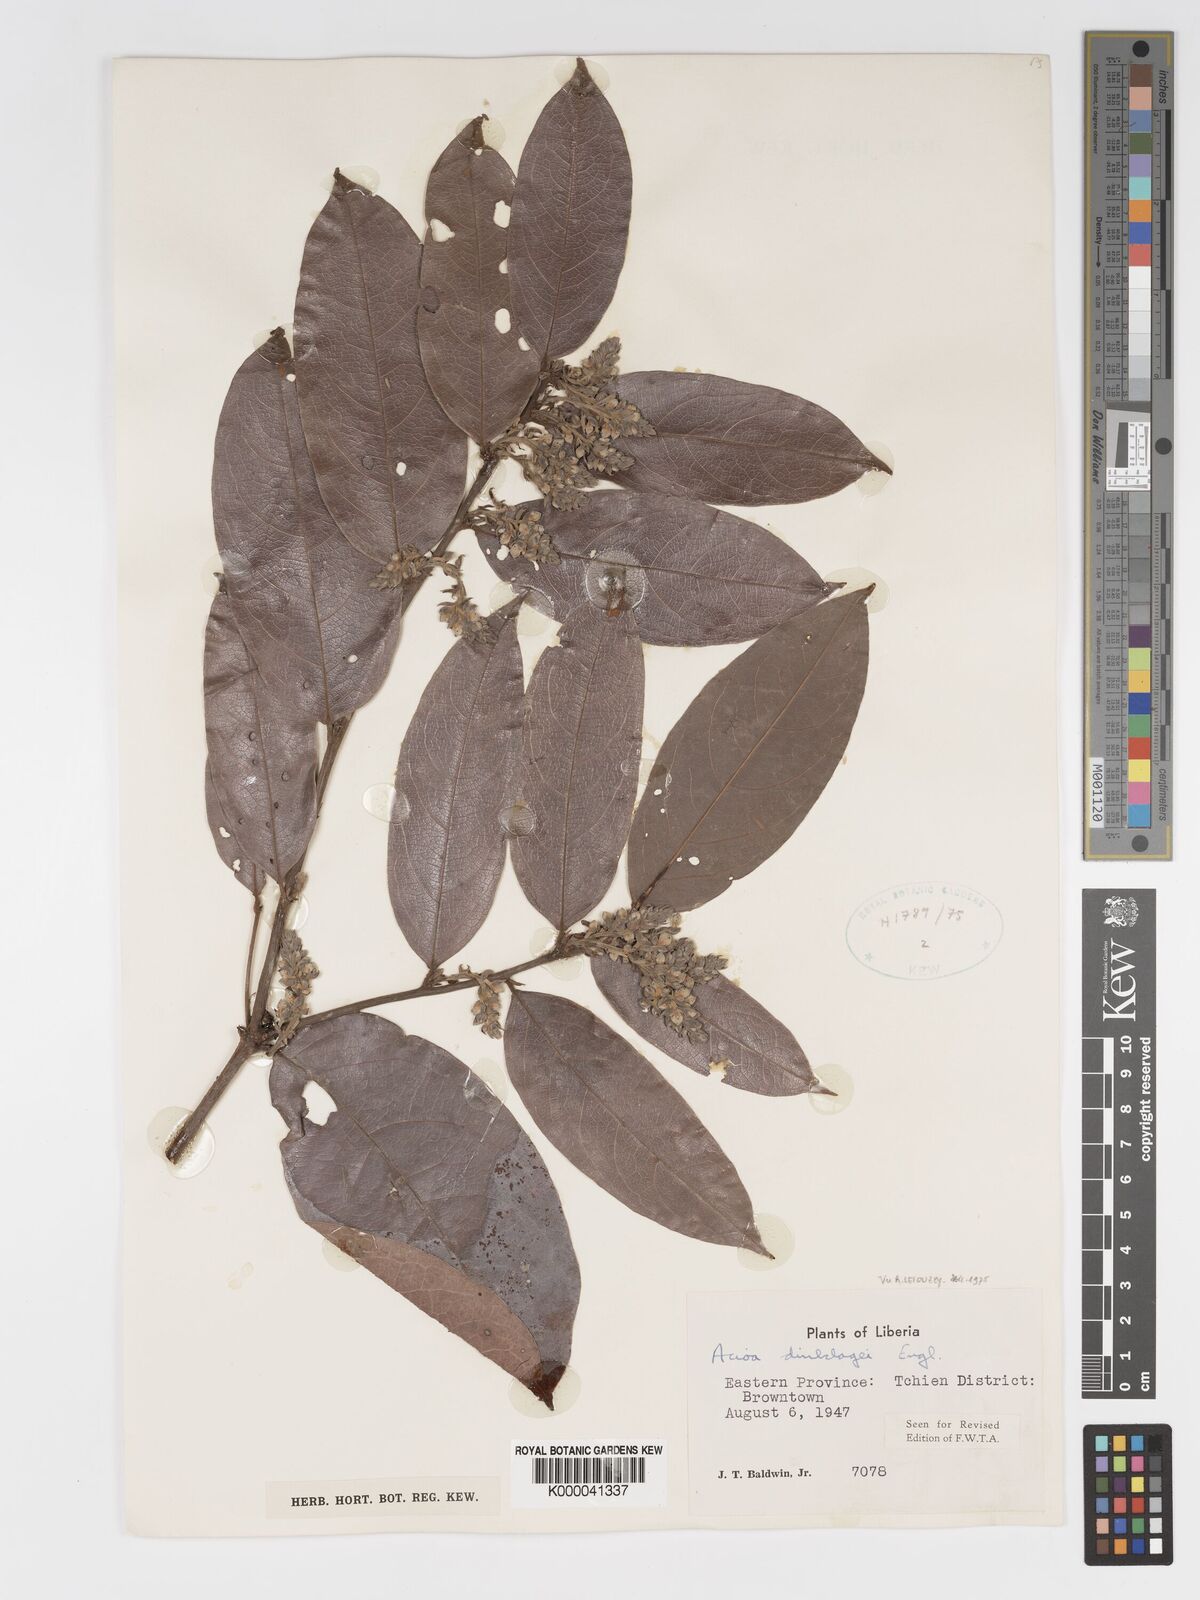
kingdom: Plantae
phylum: Tracheophyta
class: Magnoliopsida
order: Malpighiales
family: Chrysobalanaceae
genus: Dactyladenia
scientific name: Dactyladenia dinklagei
